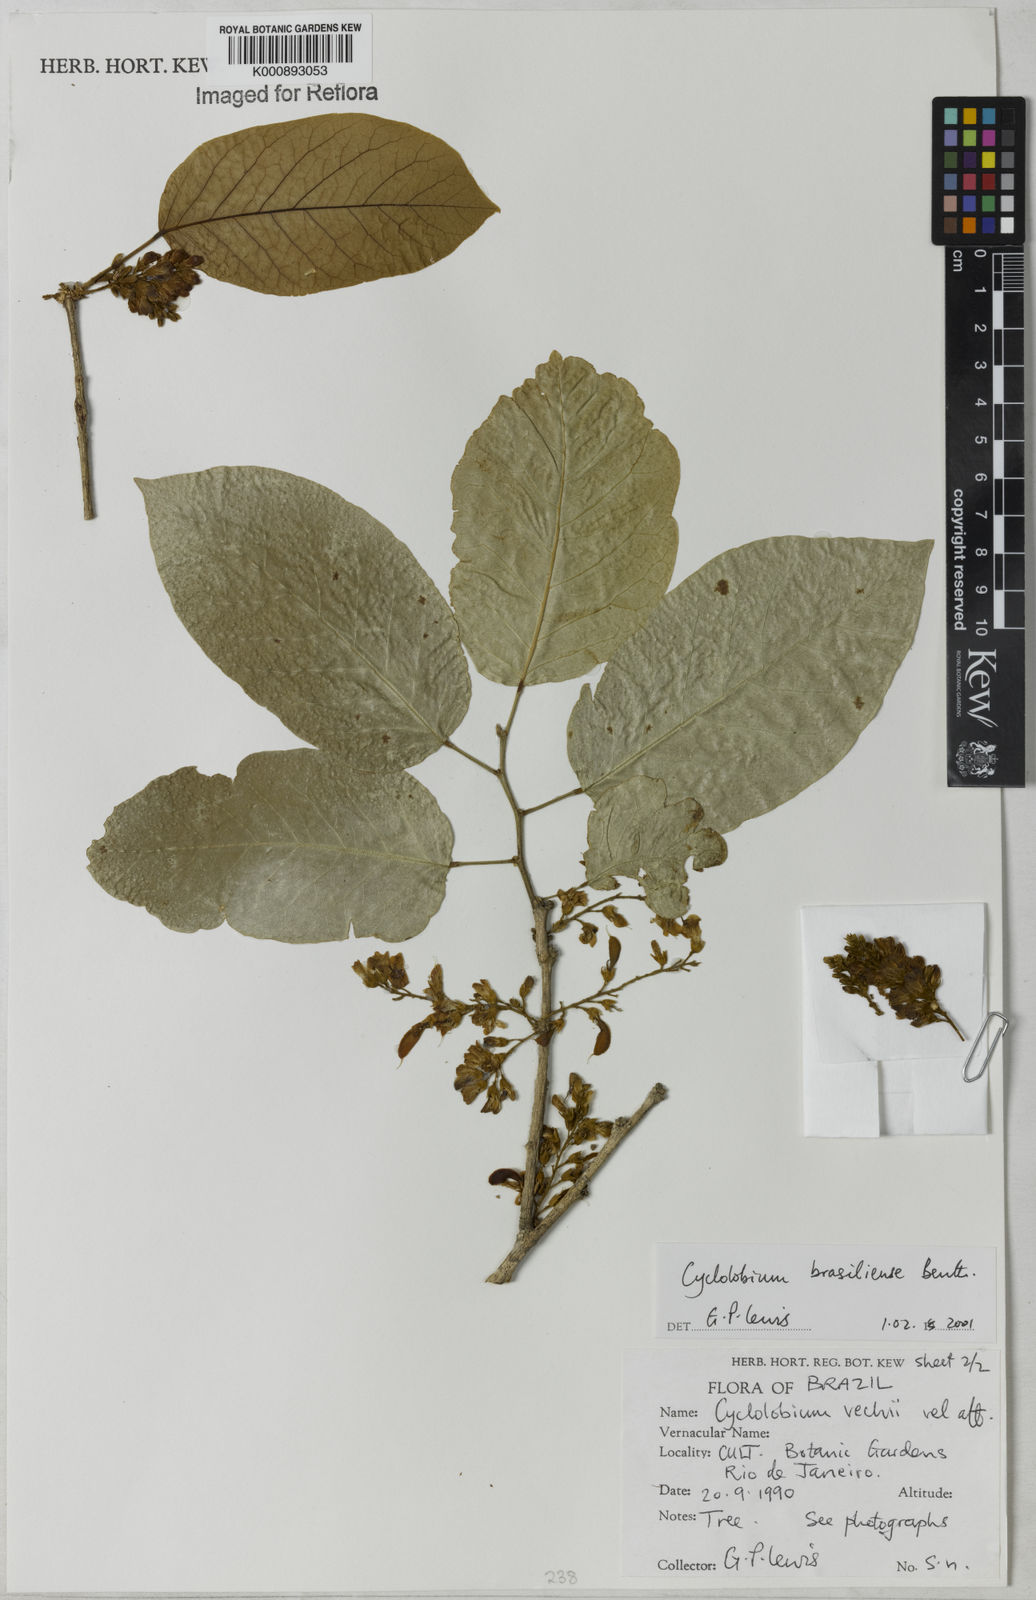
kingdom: Plantae
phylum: Tracheophyta
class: Magnoliopsida
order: Fabales
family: Fabaceae
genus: Cyclolobium
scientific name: Cyclolobium brasiliense
